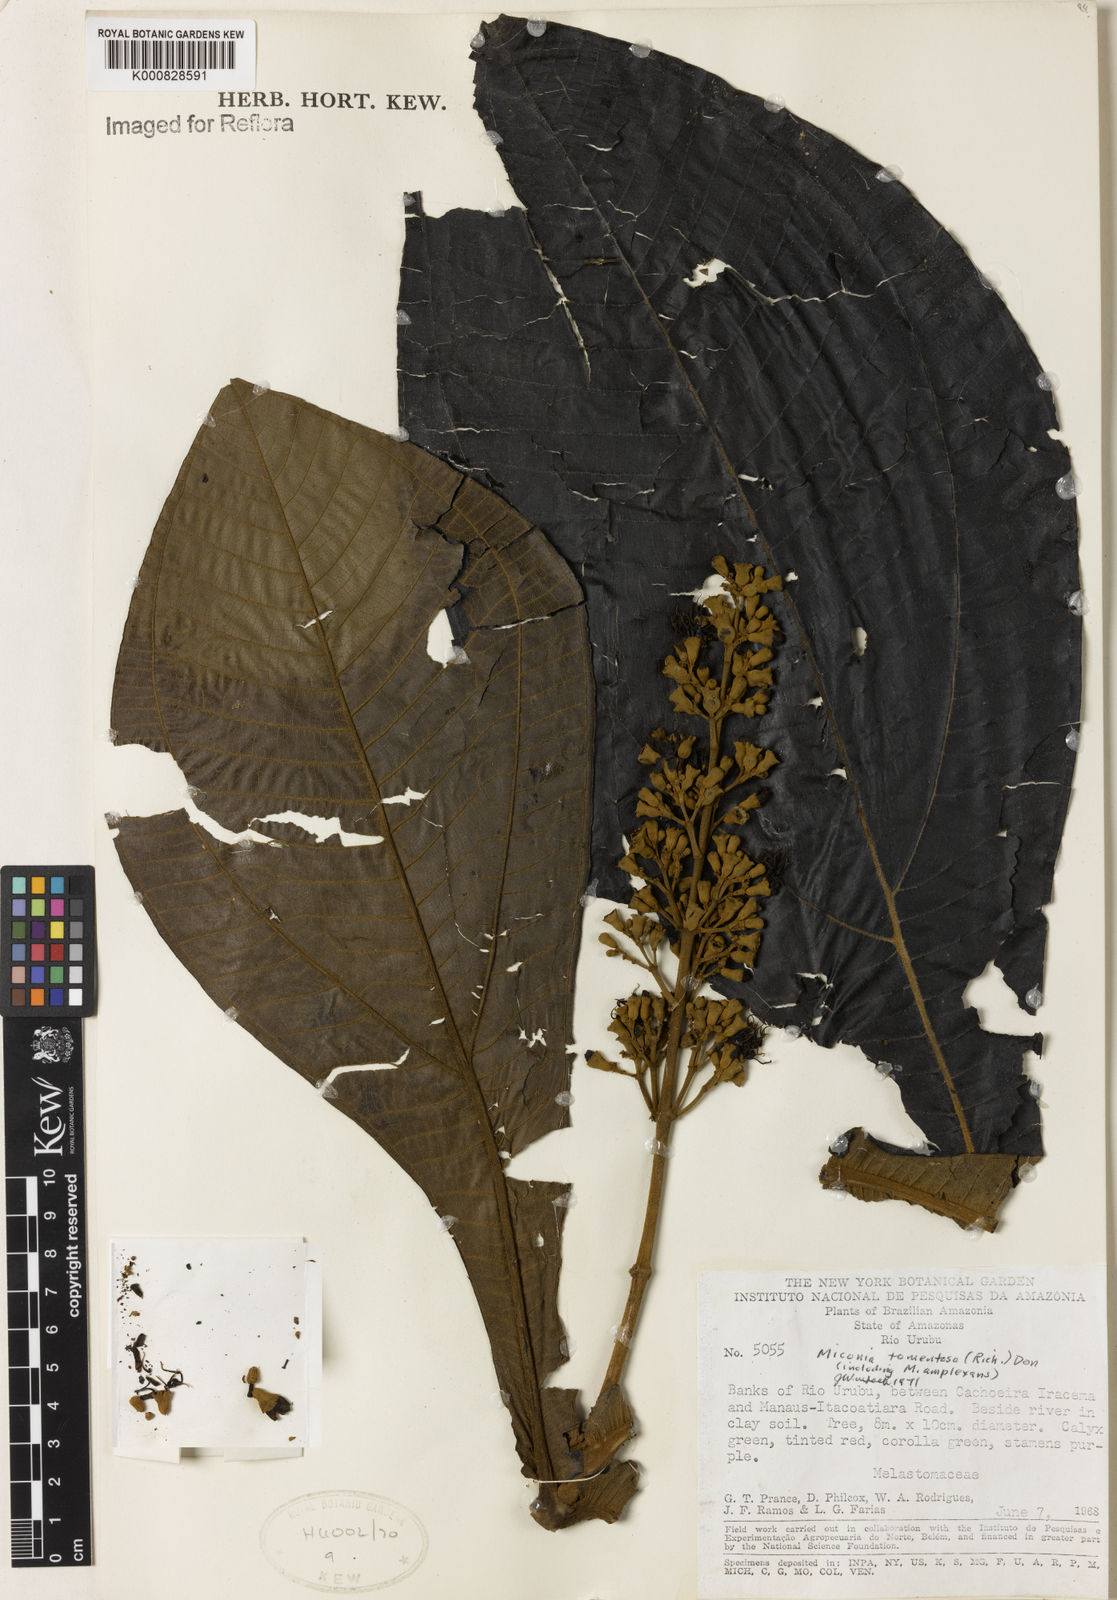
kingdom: Plantae
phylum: Tracheophyta
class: Magnoliopsida
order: Myrtales
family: Melastomataceae
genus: Miconia
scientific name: Miconia tomentosa
